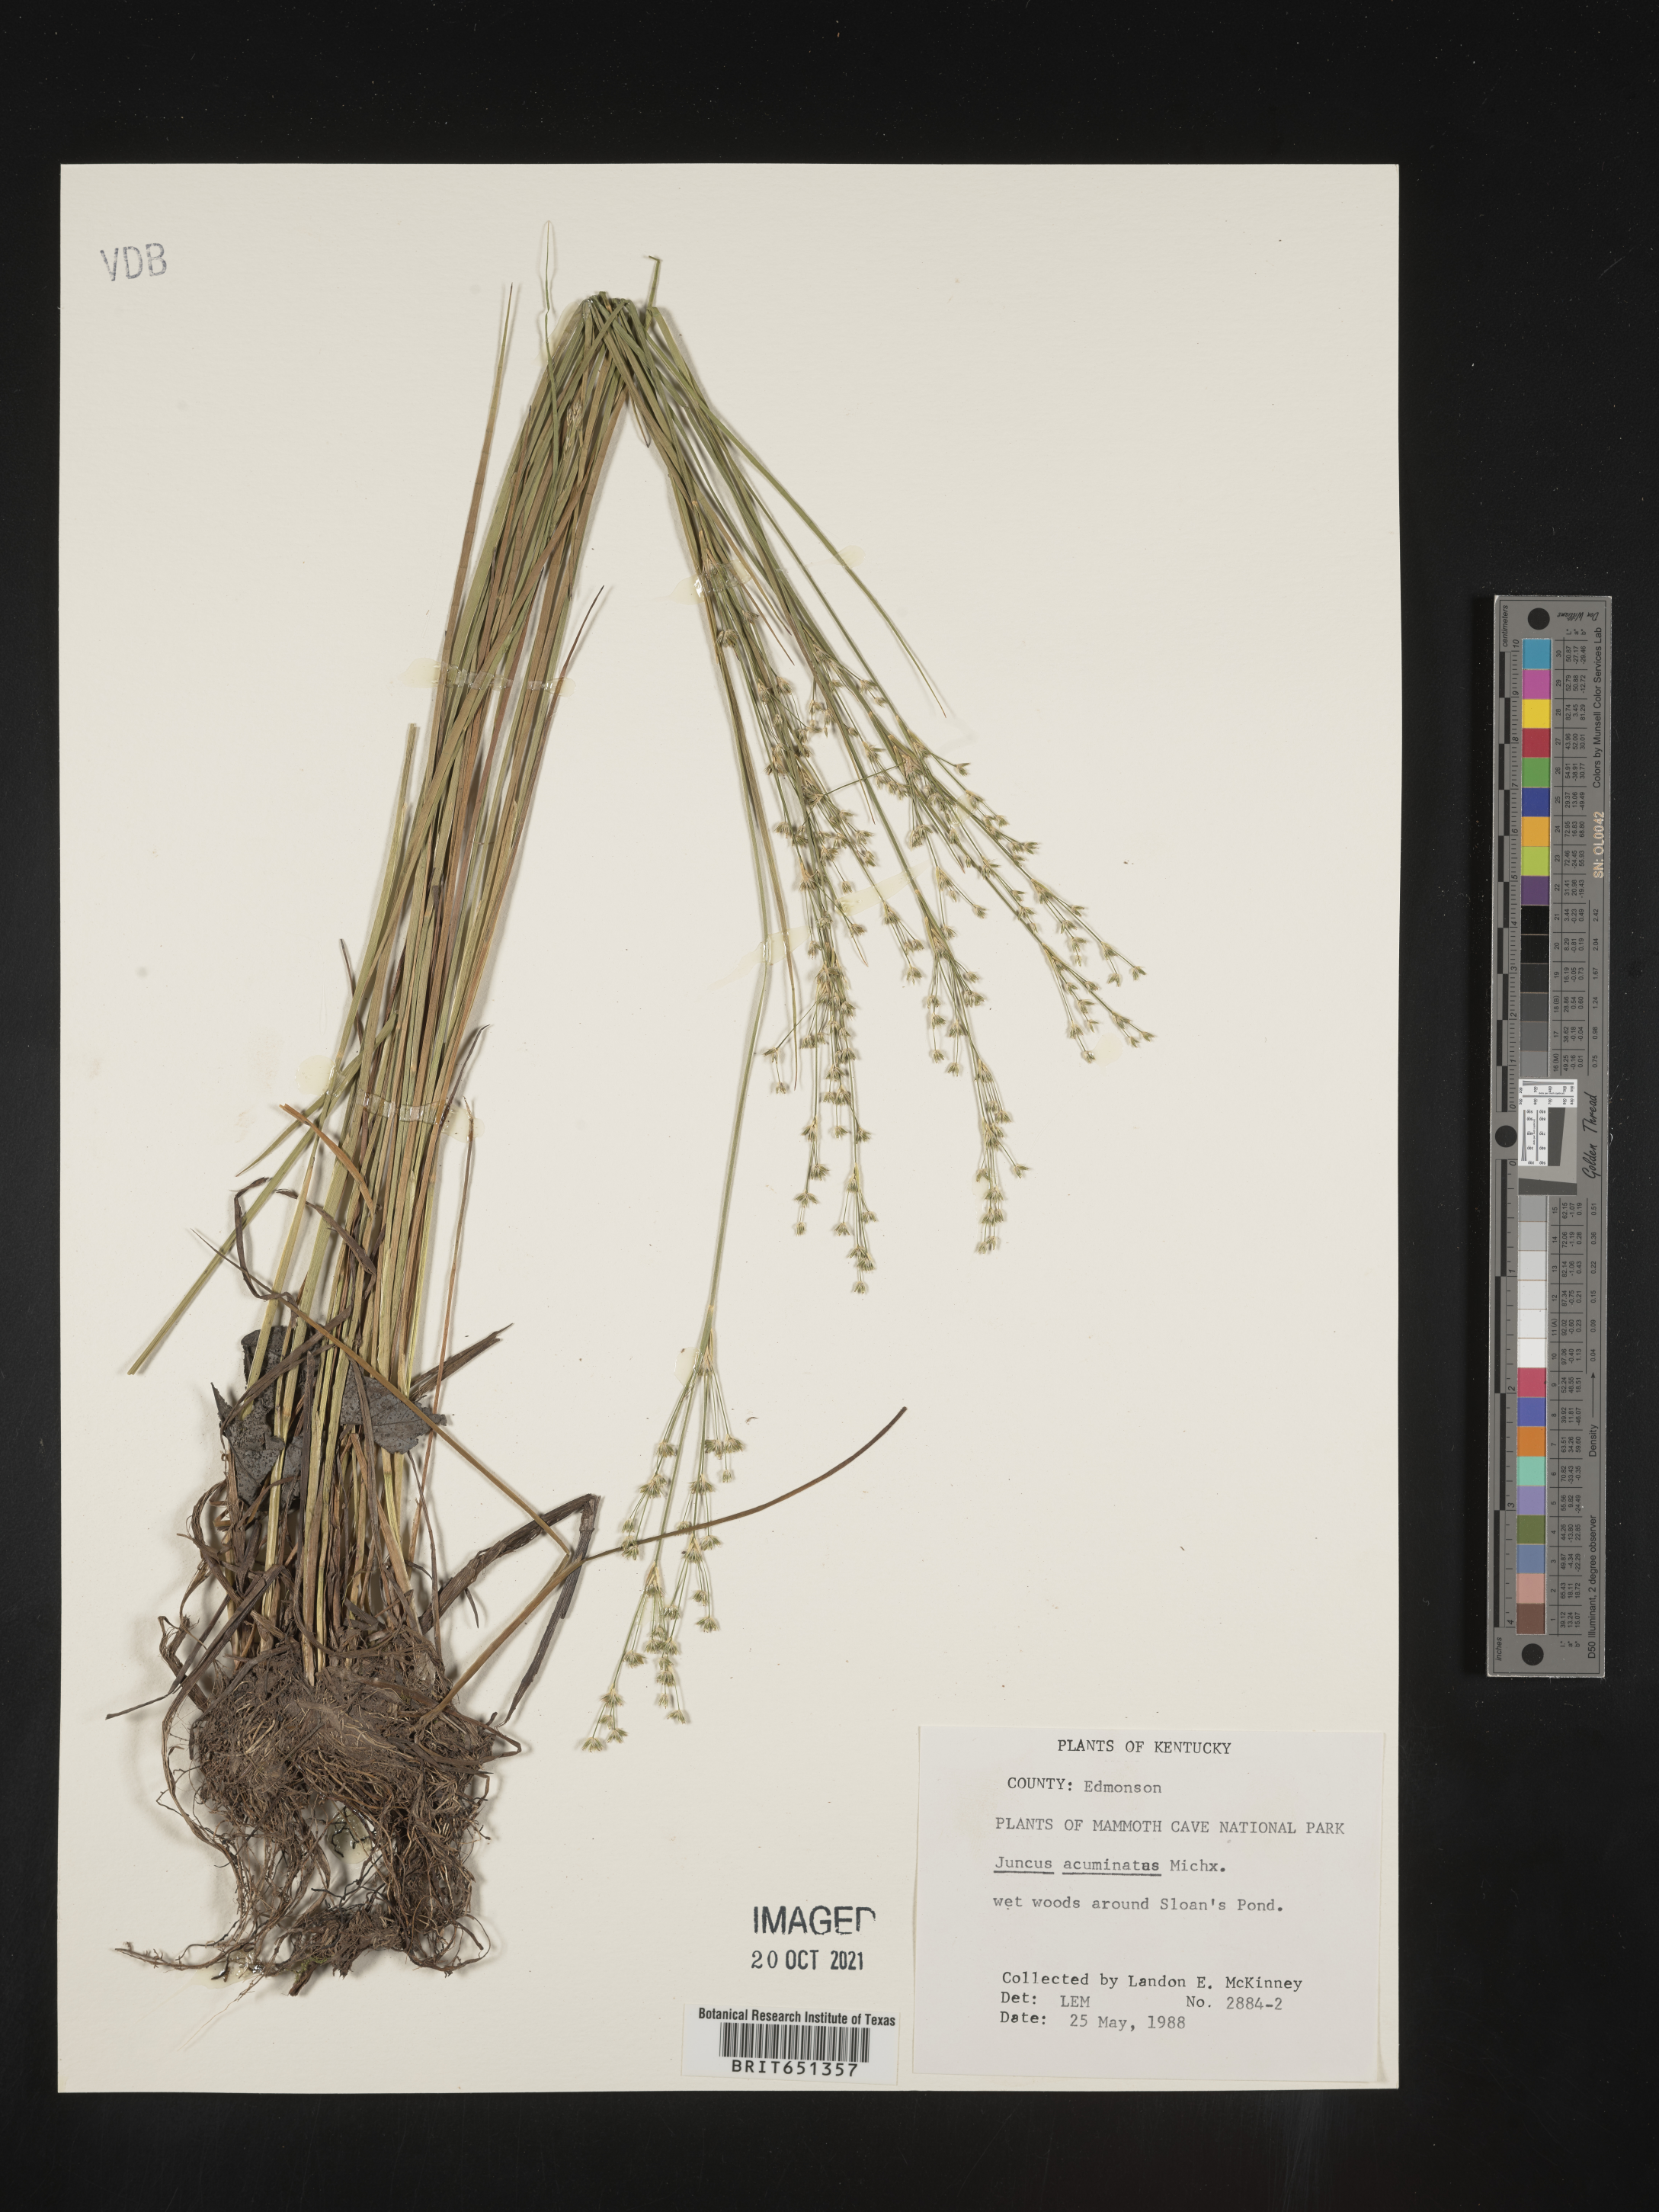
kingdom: Plantae
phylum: Tracheophyta
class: Liliopsida
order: Poales
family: Juncaceae
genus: Juncus
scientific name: Juncus acuminatus
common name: Knotty-leaved rush
